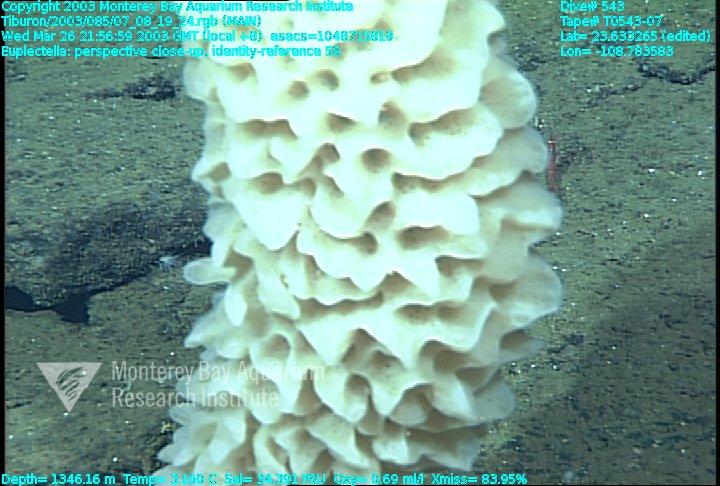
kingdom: Animalia
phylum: Porifera
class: Hexactinellida
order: Lyssacinosida
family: Euplectellidae
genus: Euplectella
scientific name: Euplectella
